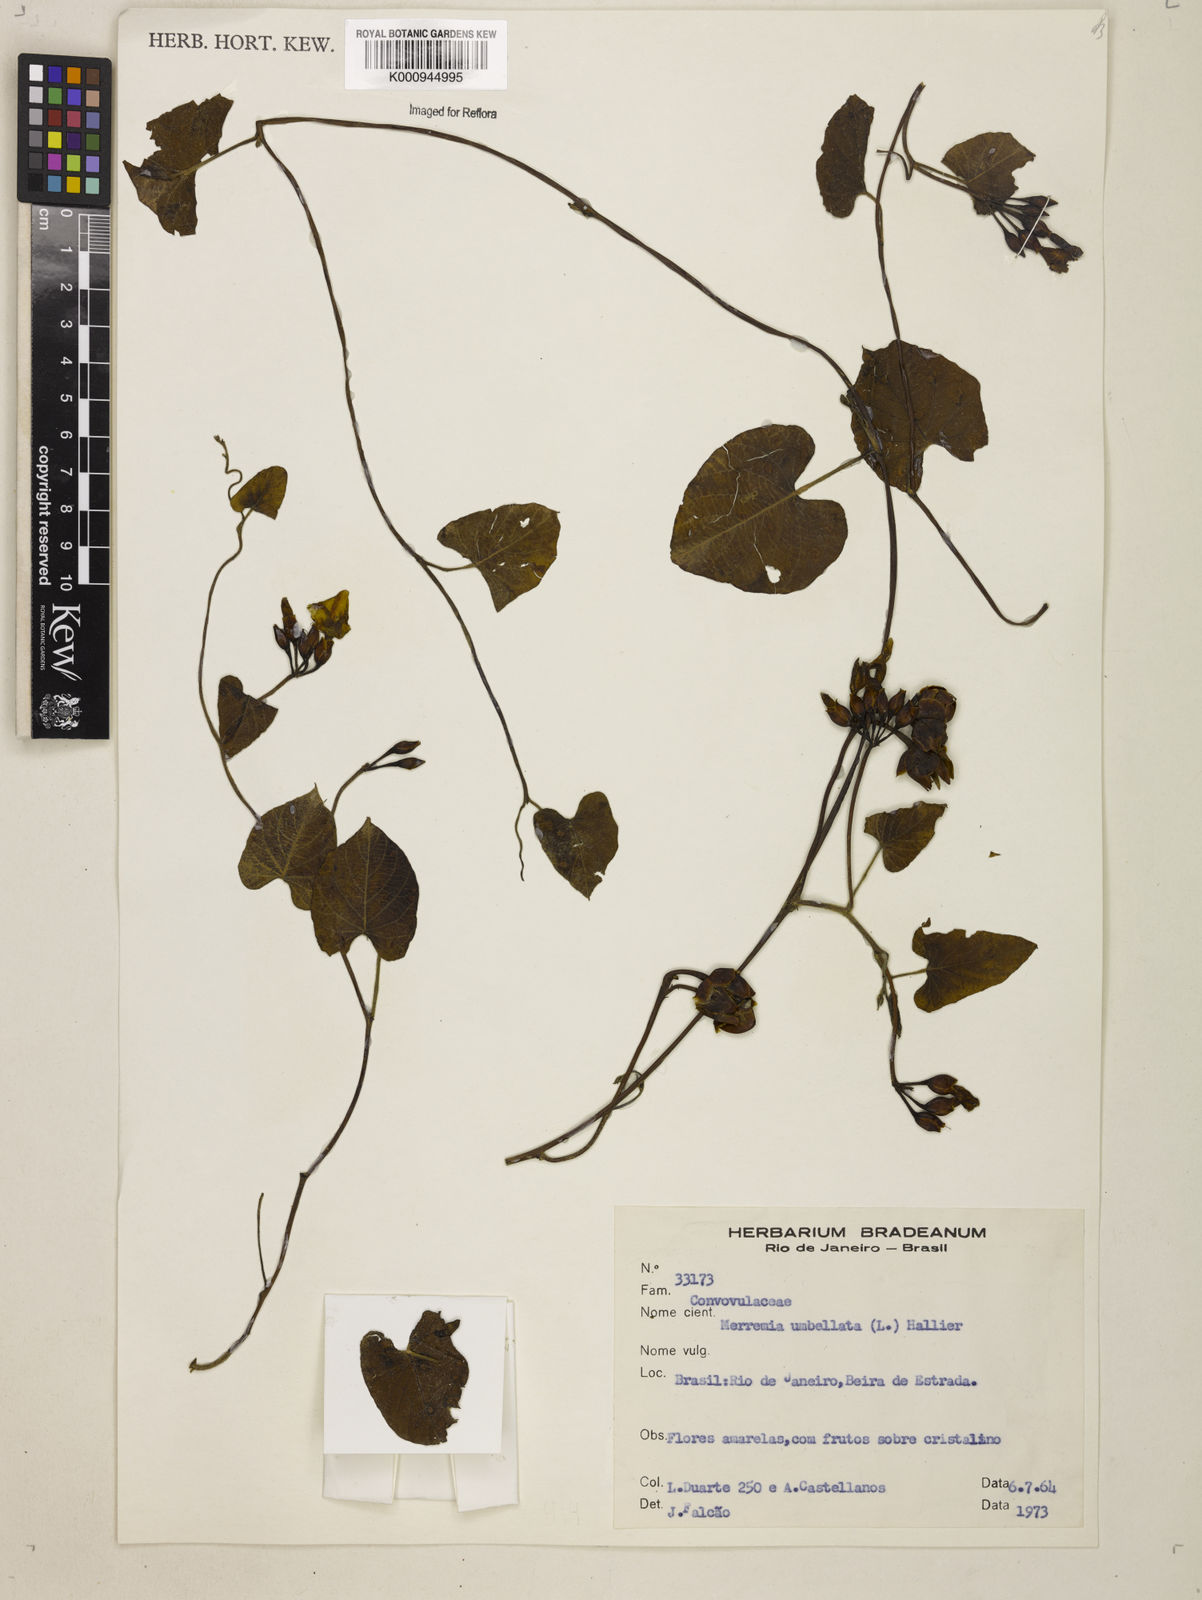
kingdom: Plantae
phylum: Tracheophyta
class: Magnoliopsida
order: Solanales
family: Convolvulaceae
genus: Camonea
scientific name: Camonea umbellata
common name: Hogvine
